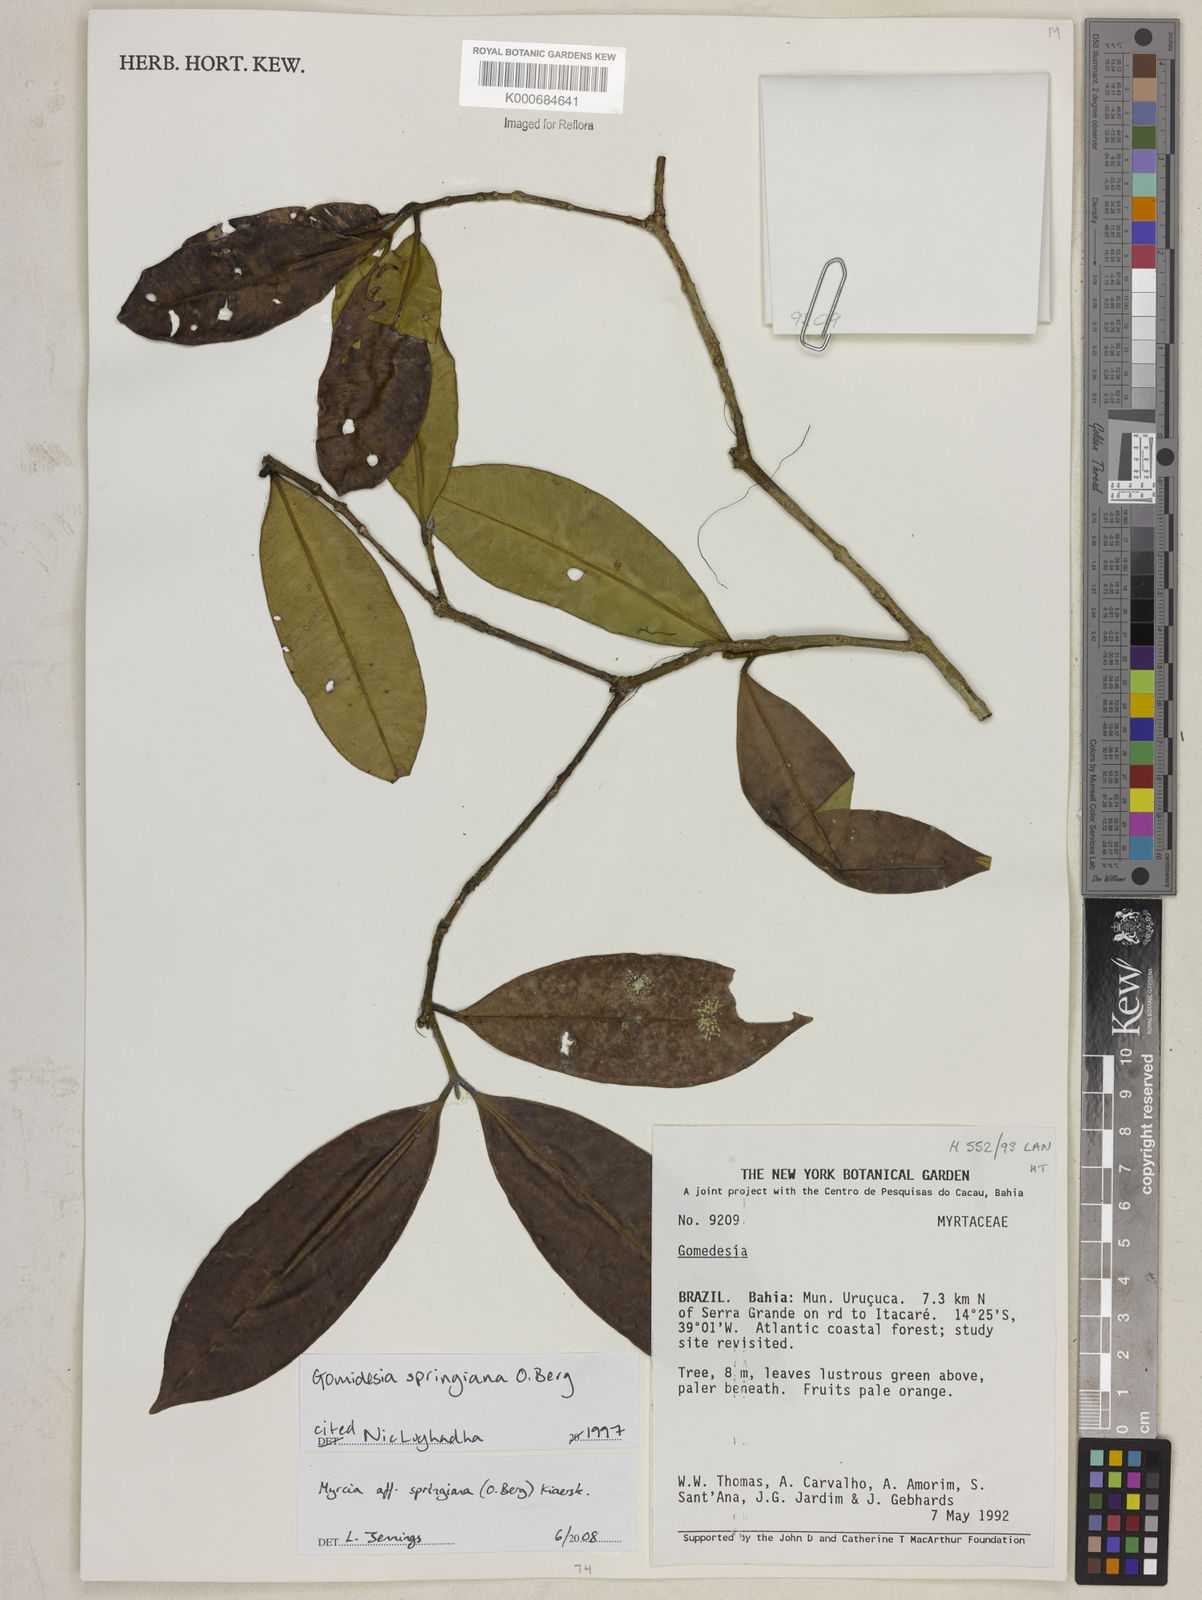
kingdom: Plantae
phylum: Tracheophyta
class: Magnoliopsida
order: Myrtales
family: Myrtaceae
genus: Myrcia
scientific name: Myrcia springiana
